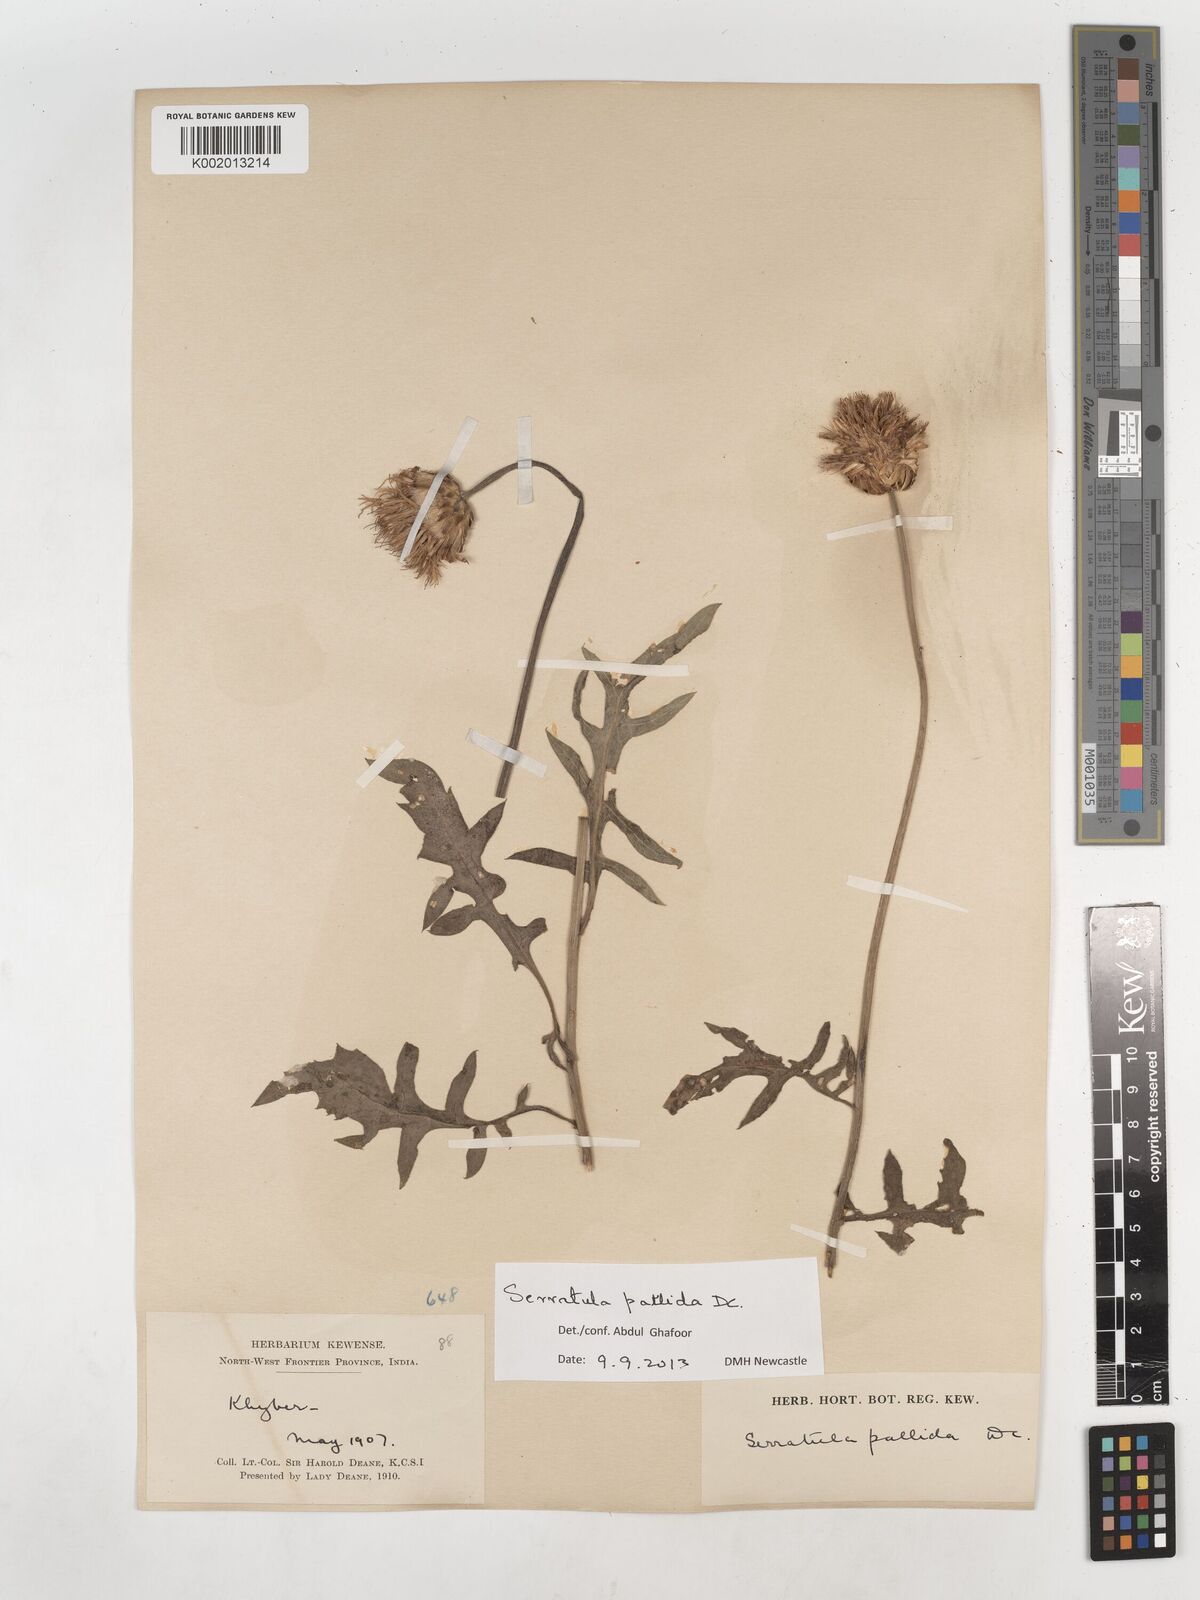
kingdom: Plantae
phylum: Tracheophyta
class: Magnoliopsida
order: Asterales
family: Asteraceae
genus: Klasea
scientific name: Klasea pallida
